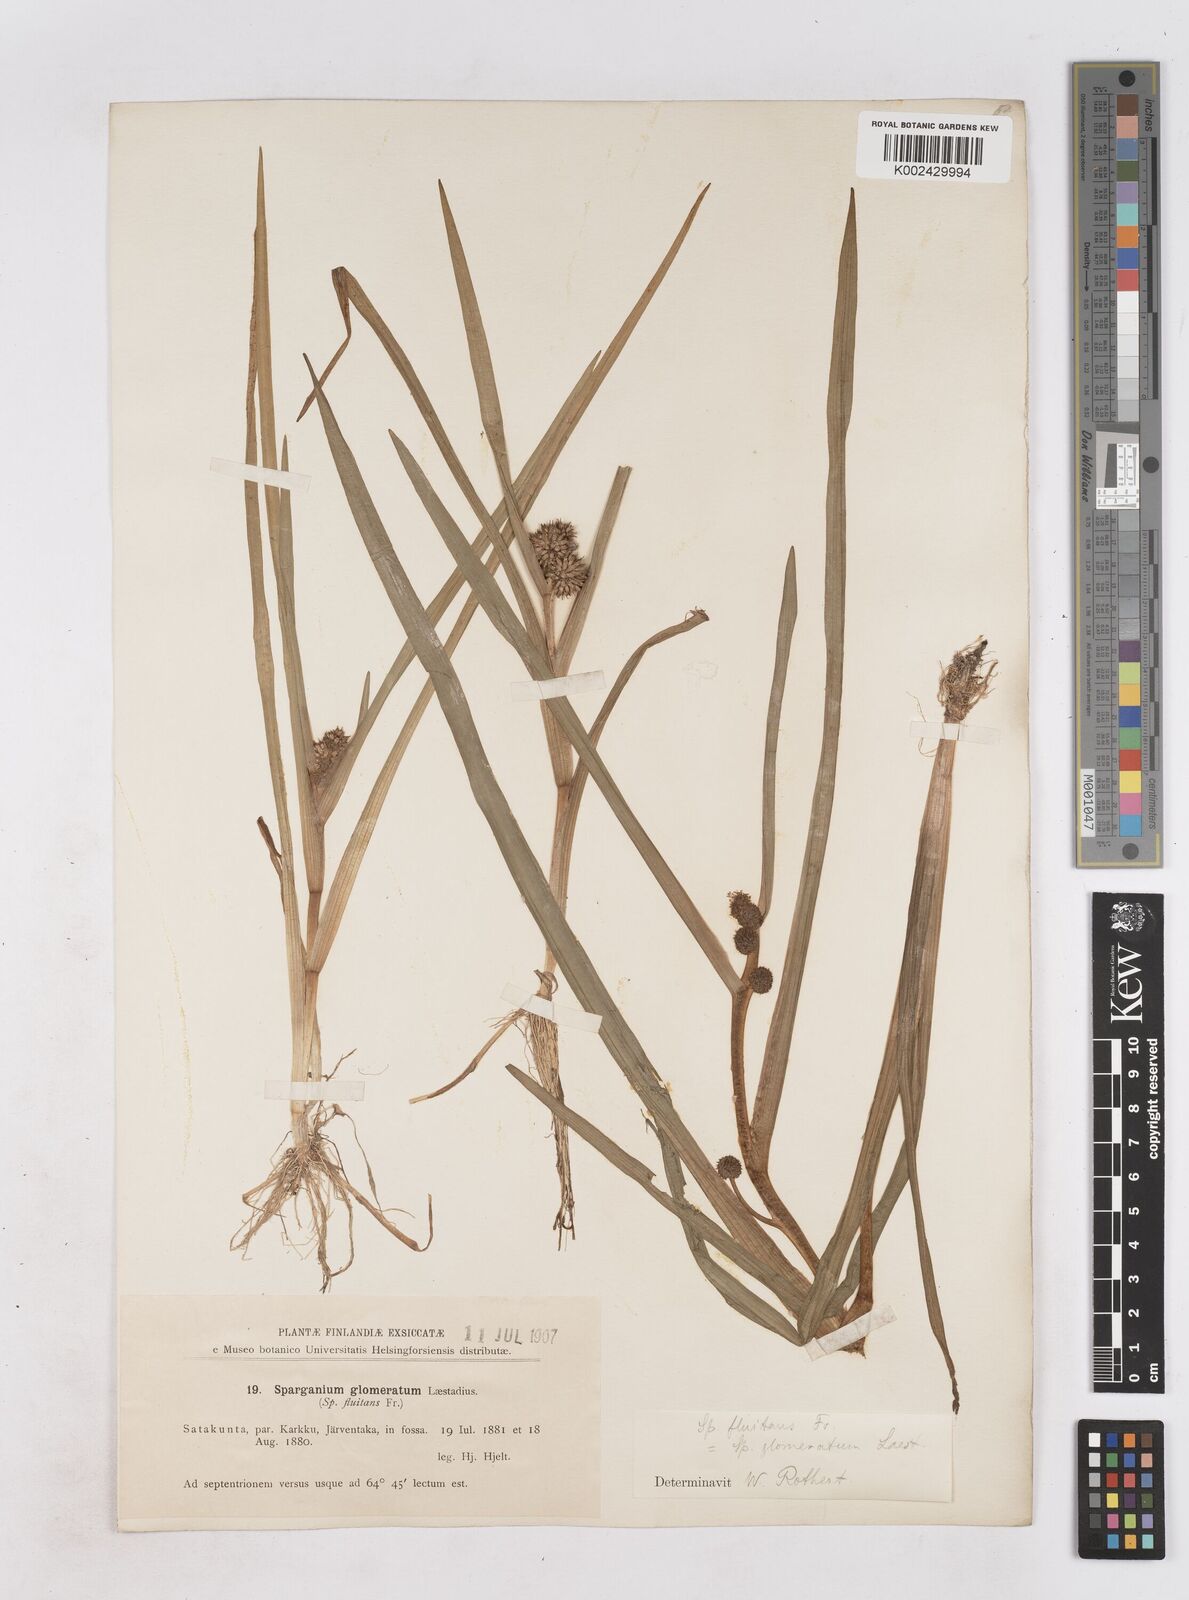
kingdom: Plantae
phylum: Tracheophyta
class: Liliopsida
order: Poales
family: Typhaceae
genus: Sparganium
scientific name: Sparganium angustifolium
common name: Floating bur-reed
